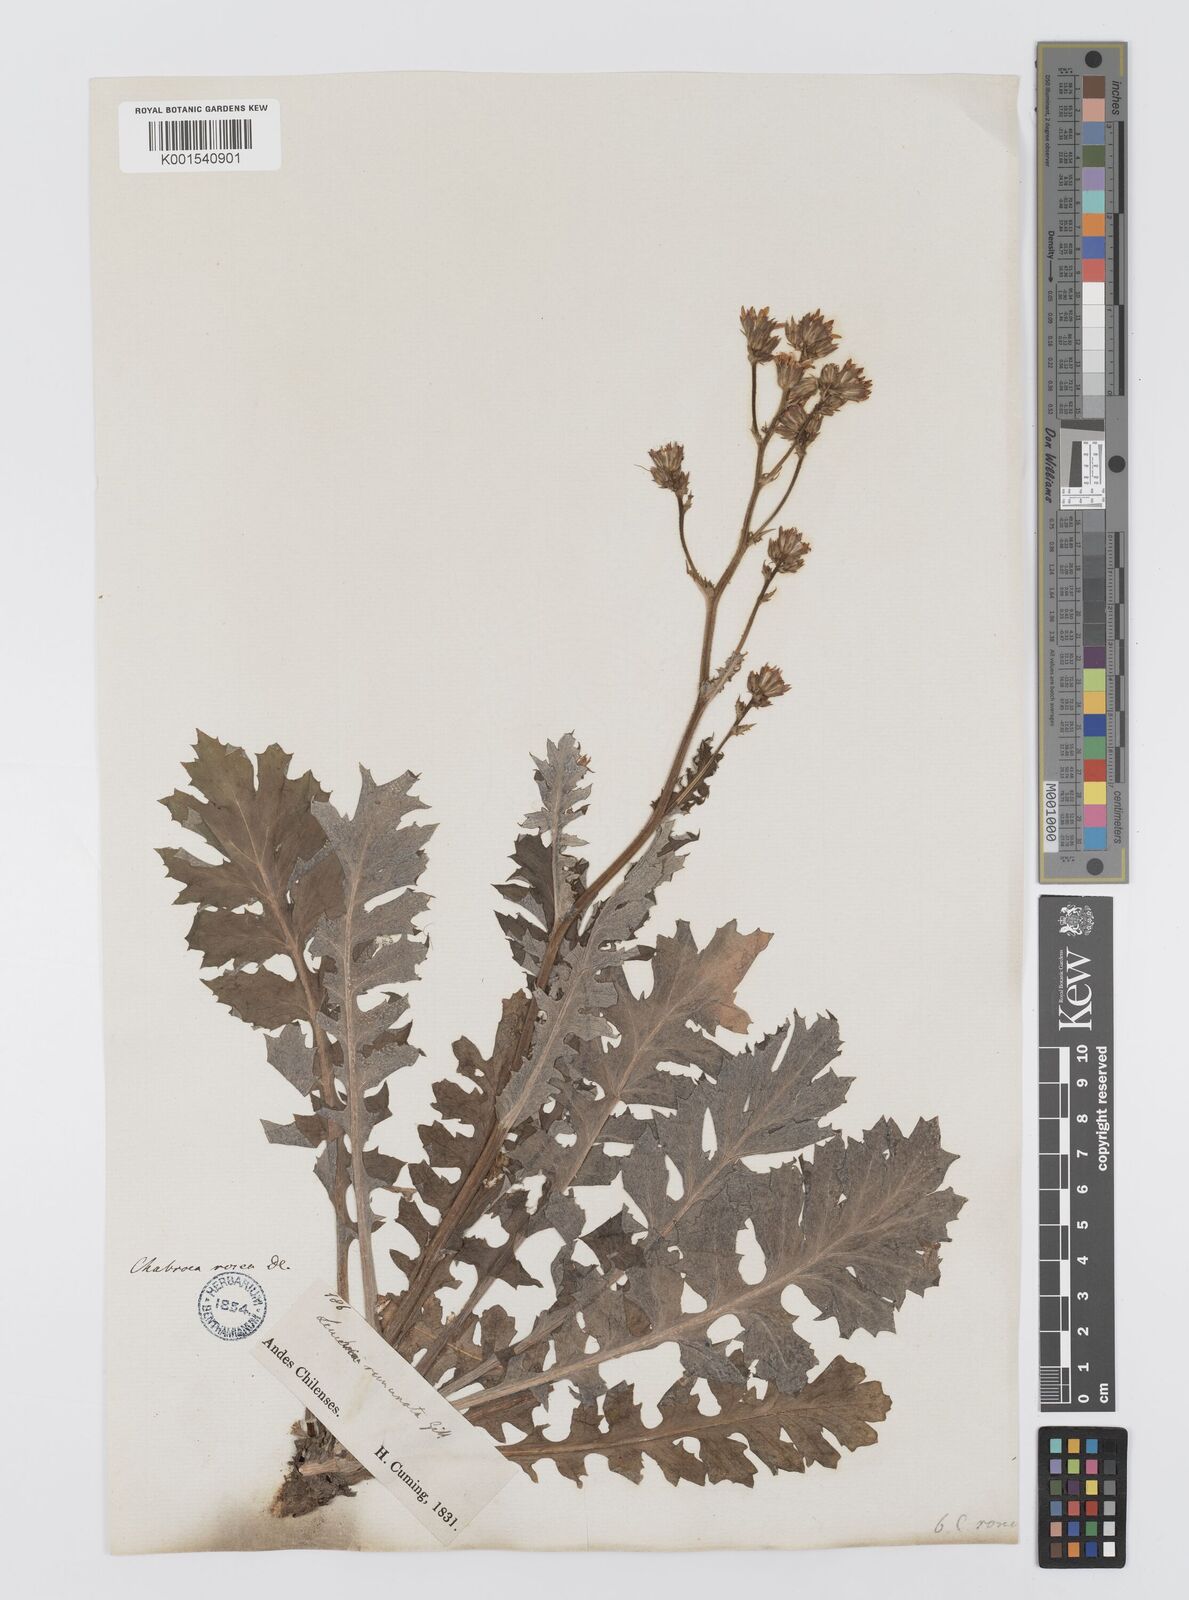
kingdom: Plantae
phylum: Tracheophyta
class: Magnoliopsida
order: Asterales
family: Asteraceae
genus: Leucheria
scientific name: Leucheria rosea
